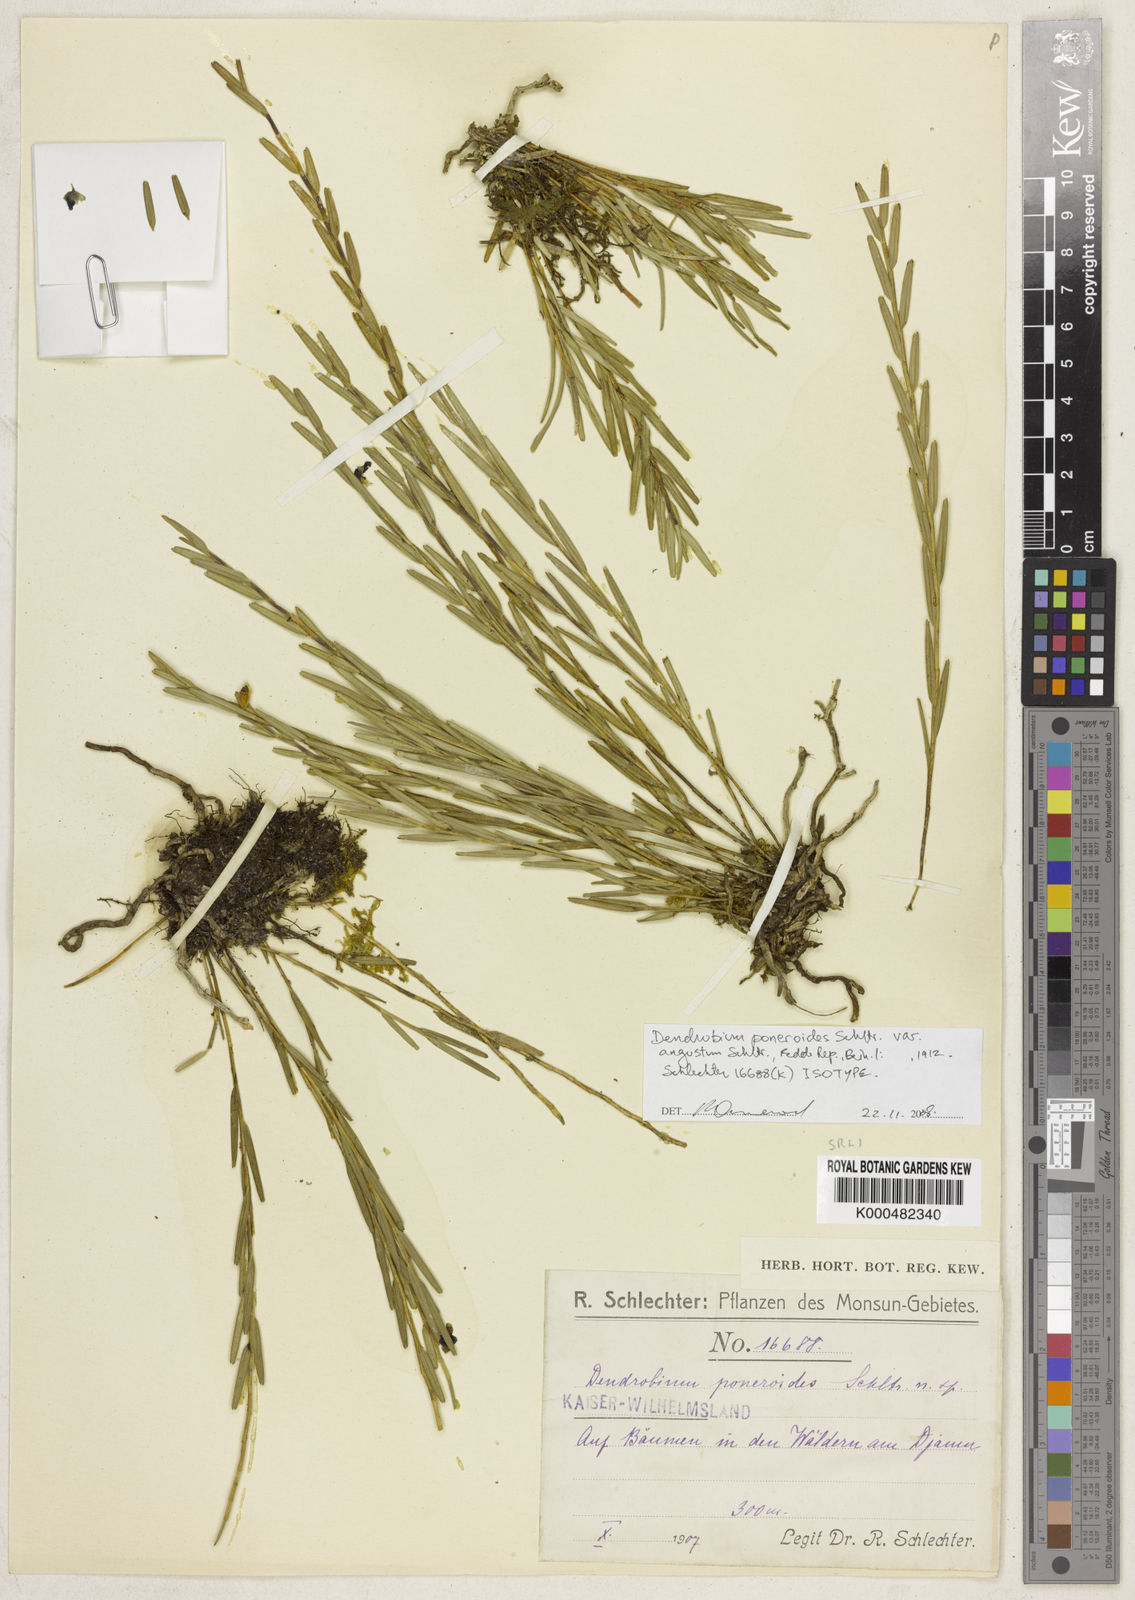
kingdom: Plantae
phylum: Tracheophyta
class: Liliopsida
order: Asparagales
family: Orchidaceae
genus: Dendrobium
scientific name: Dendrobium fallacinum
